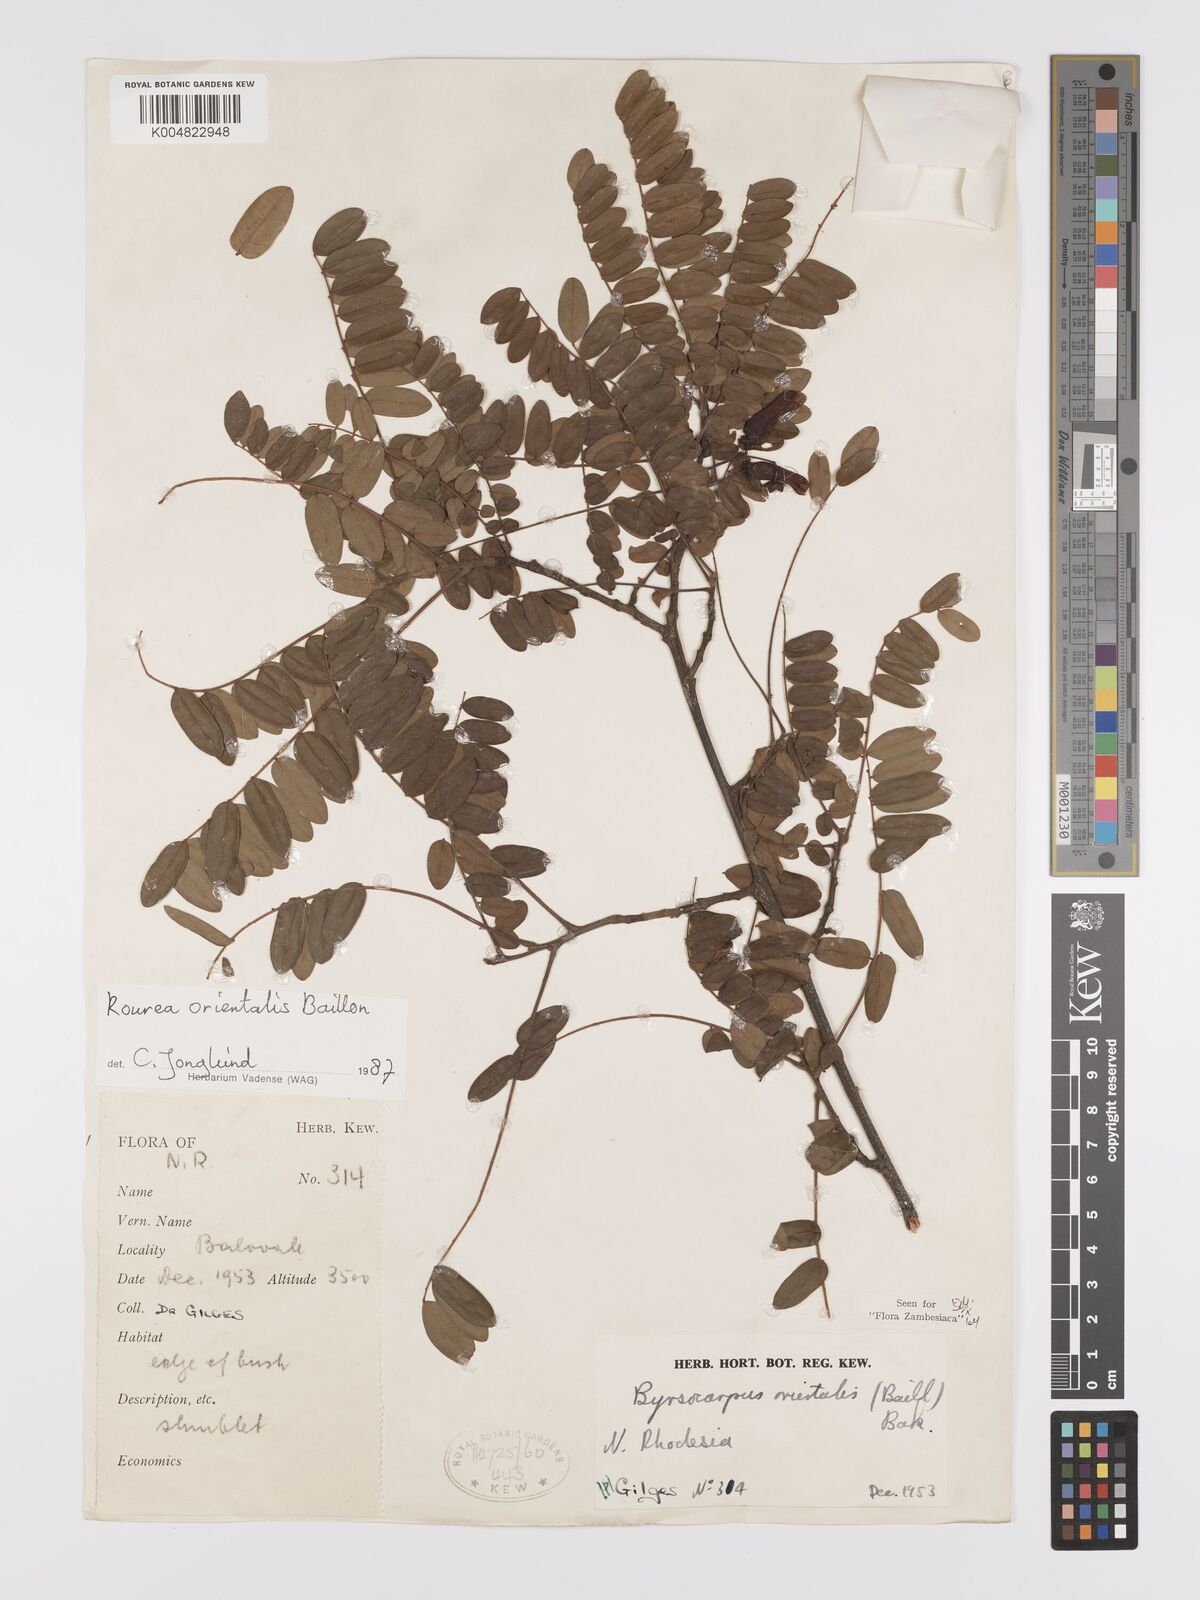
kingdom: Plantae
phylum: Tracheophyta
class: Magnoliopsida
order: Oxalidales
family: Connaraceae
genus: Rourea
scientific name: Rourea orientalis
